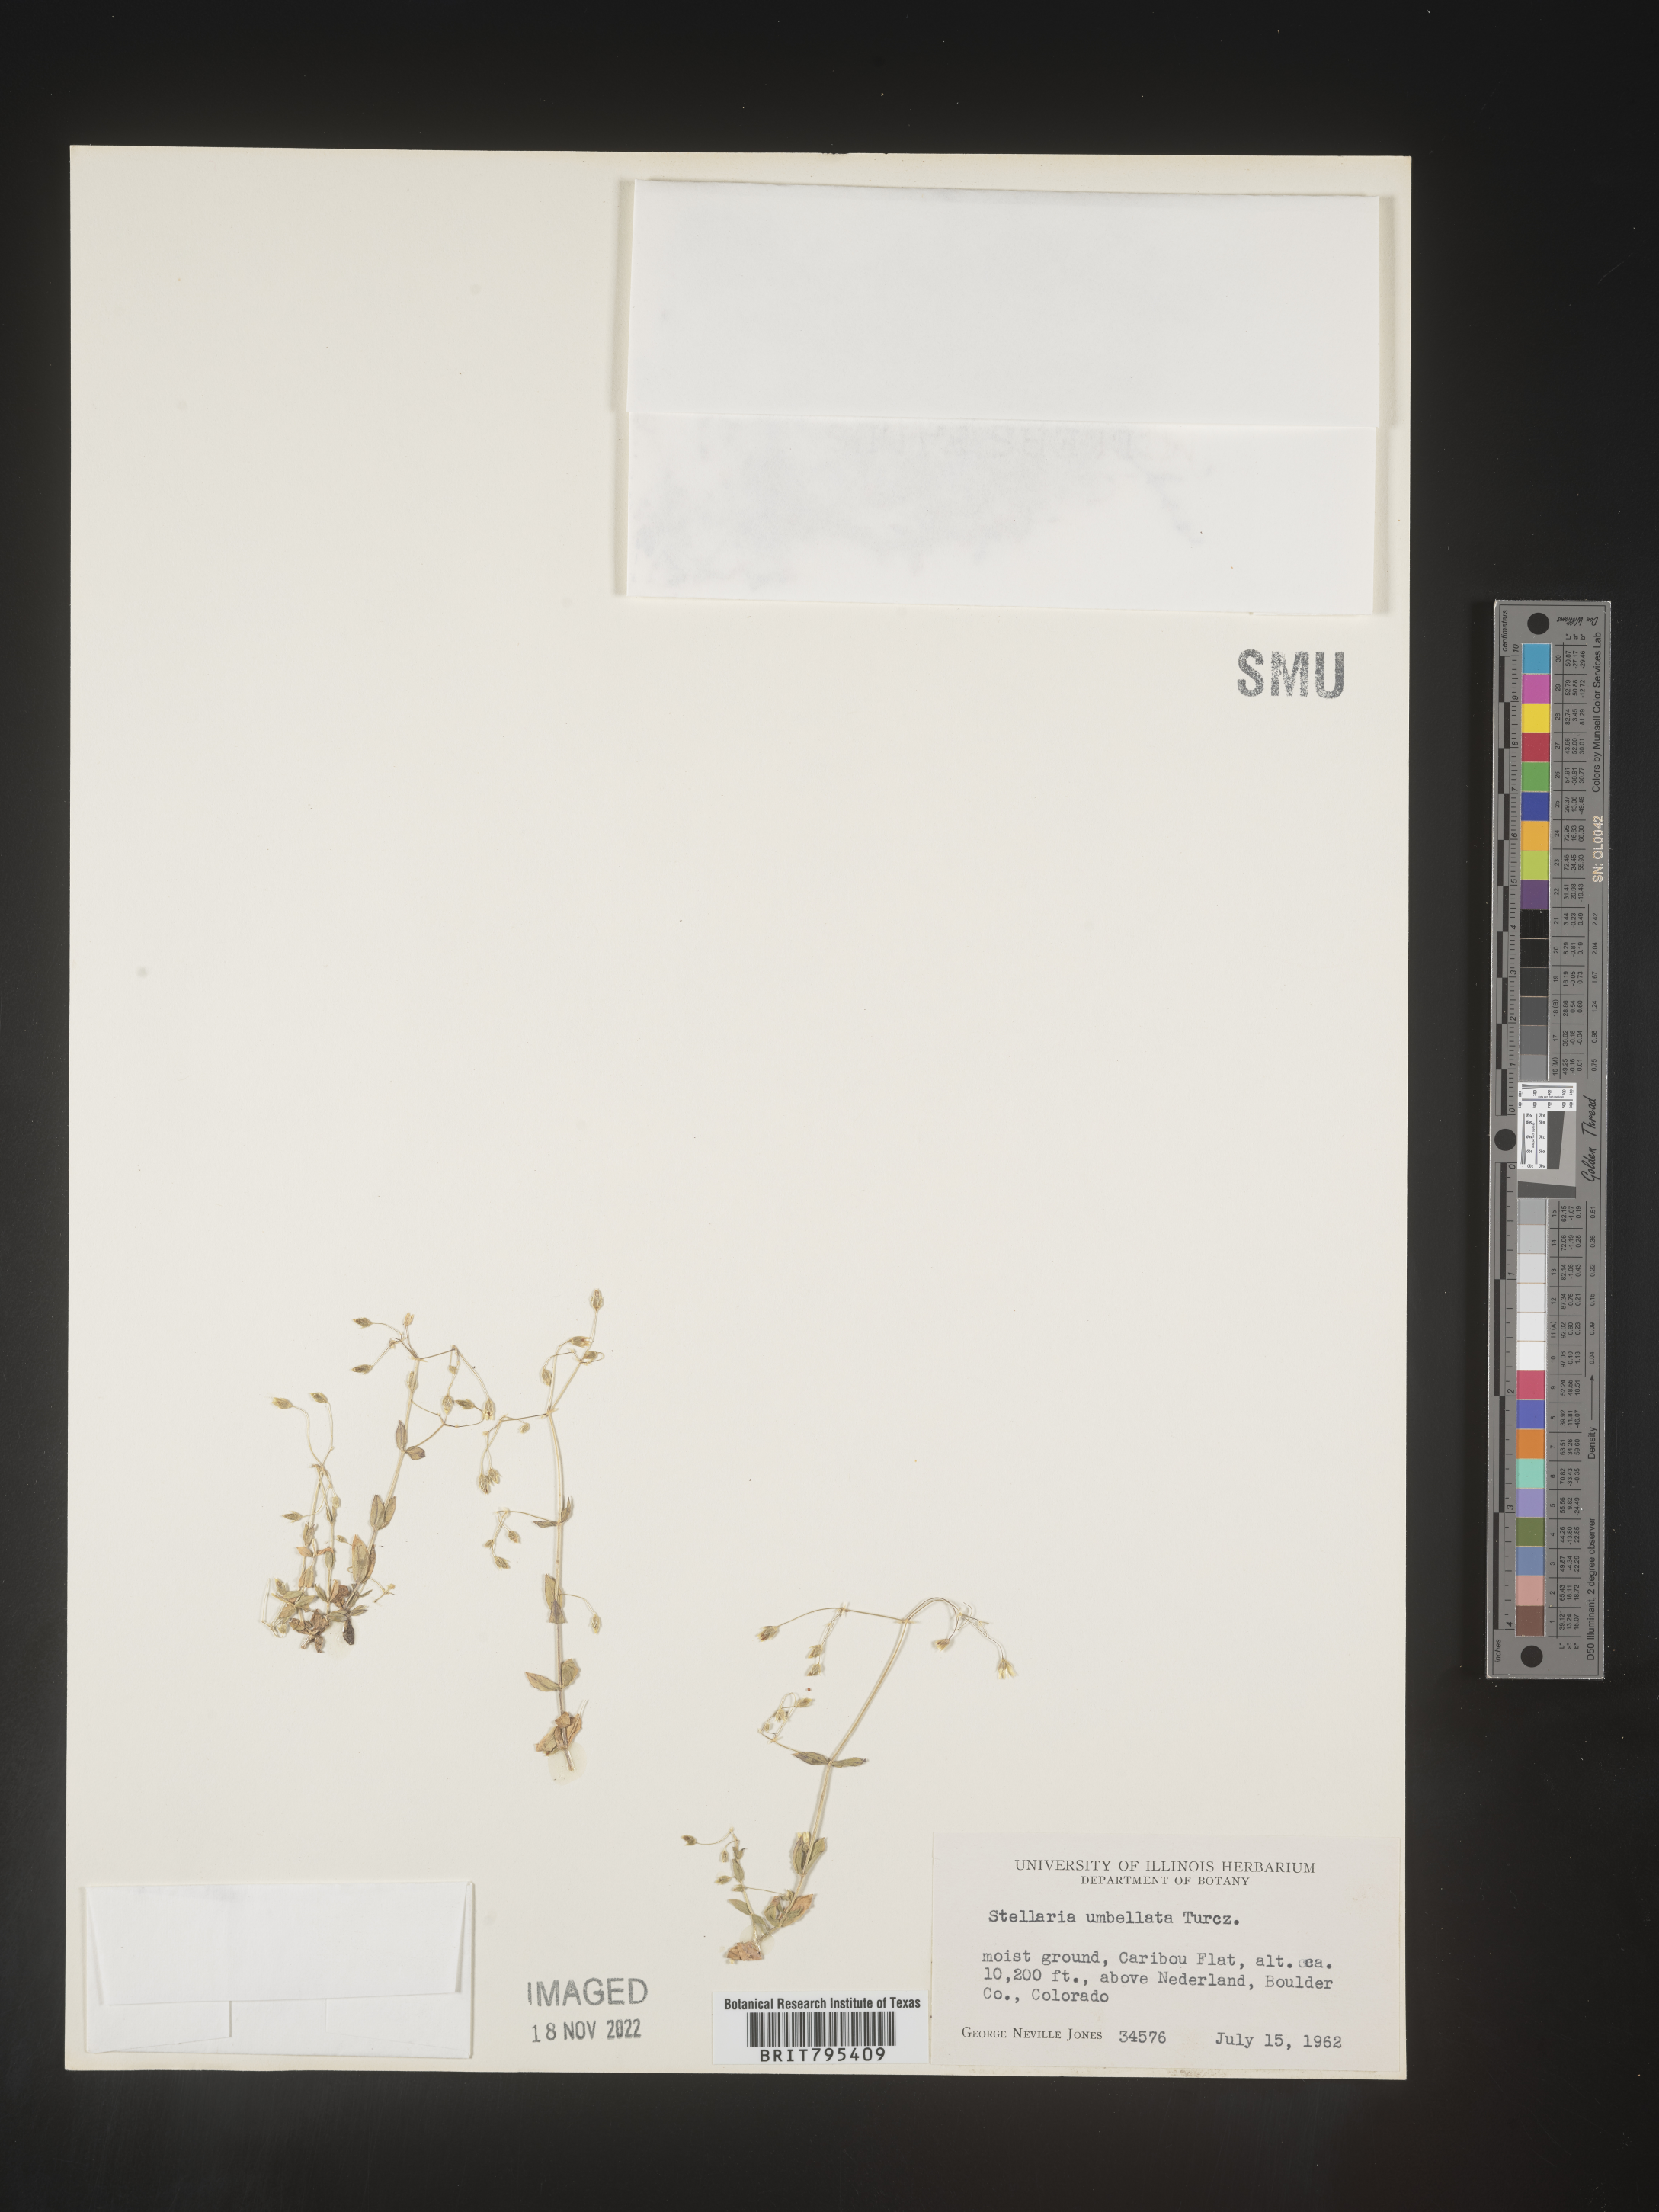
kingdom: Plantae
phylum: Tracheophyta
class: Magnoliopsida
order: Caryophyllales
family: Caryophyllaceae
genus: Stellaria
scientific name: Stellaria
